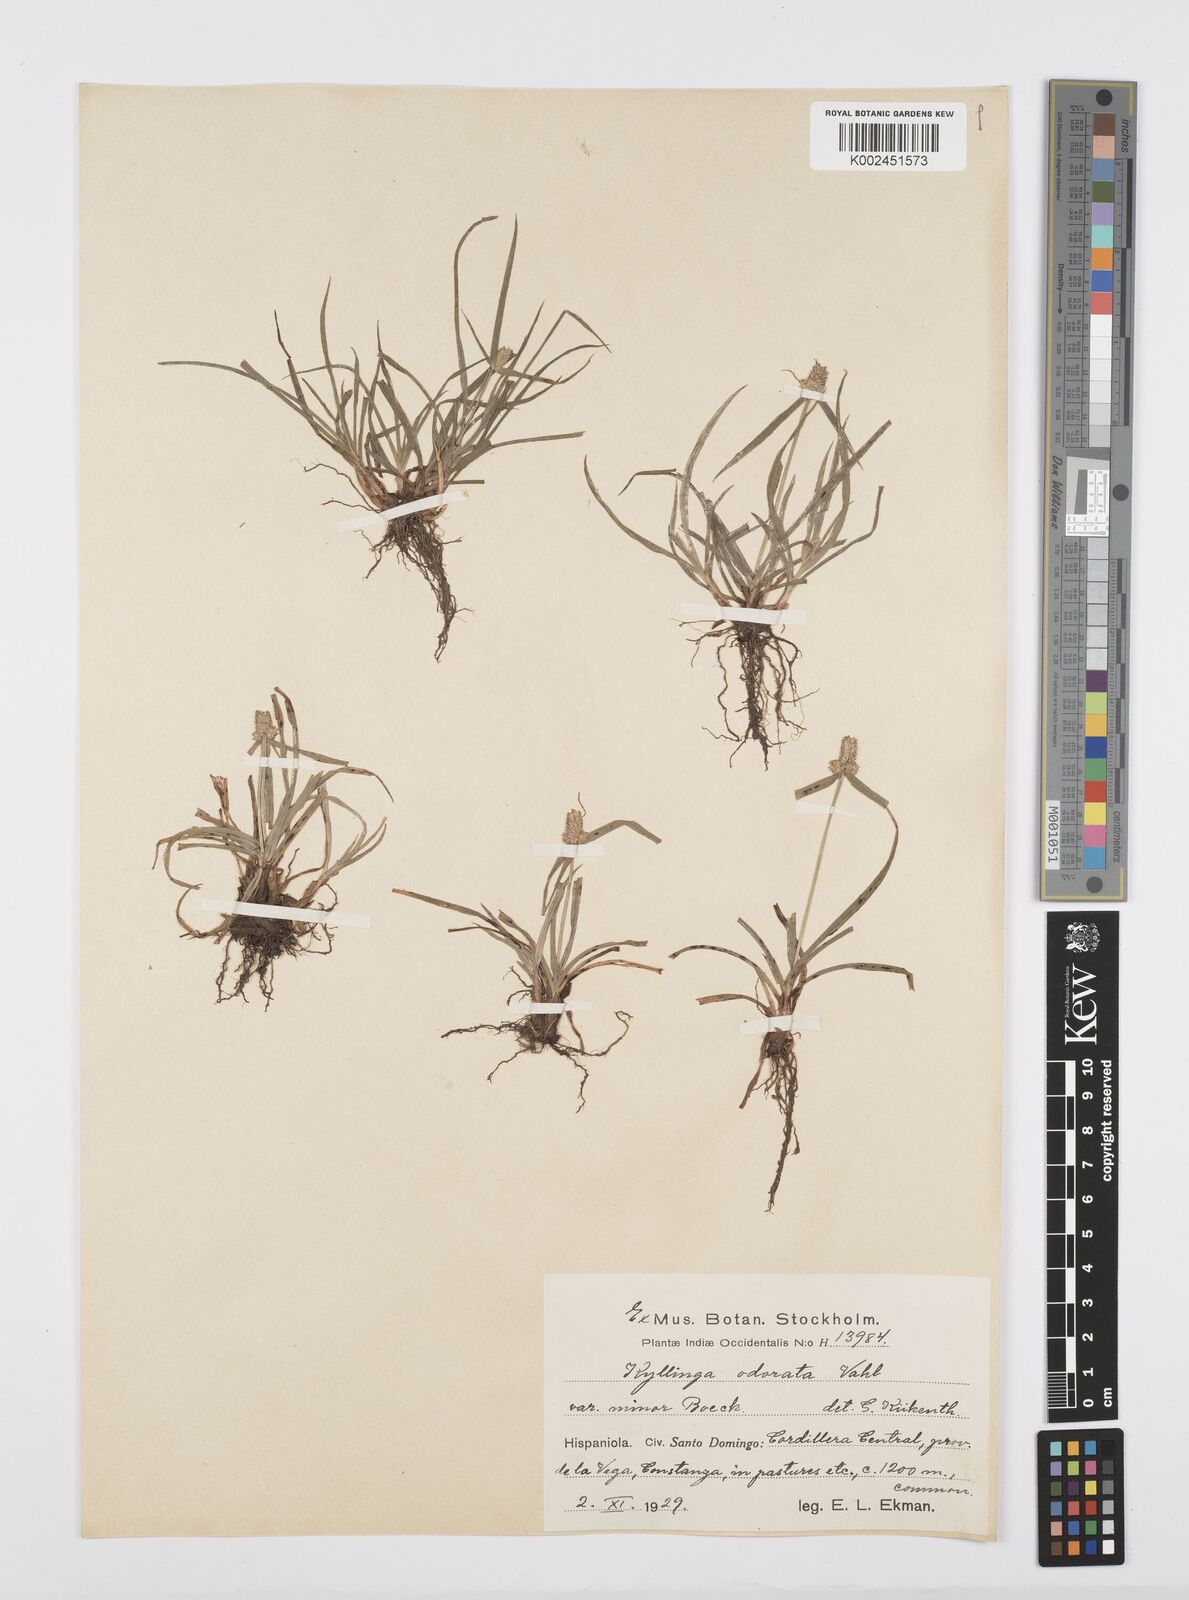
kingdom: Plantae
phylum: Tracheophyta
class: Liliopsida
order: Poales
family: Cyperaceae
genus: Cyperus
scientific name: Cyperus
